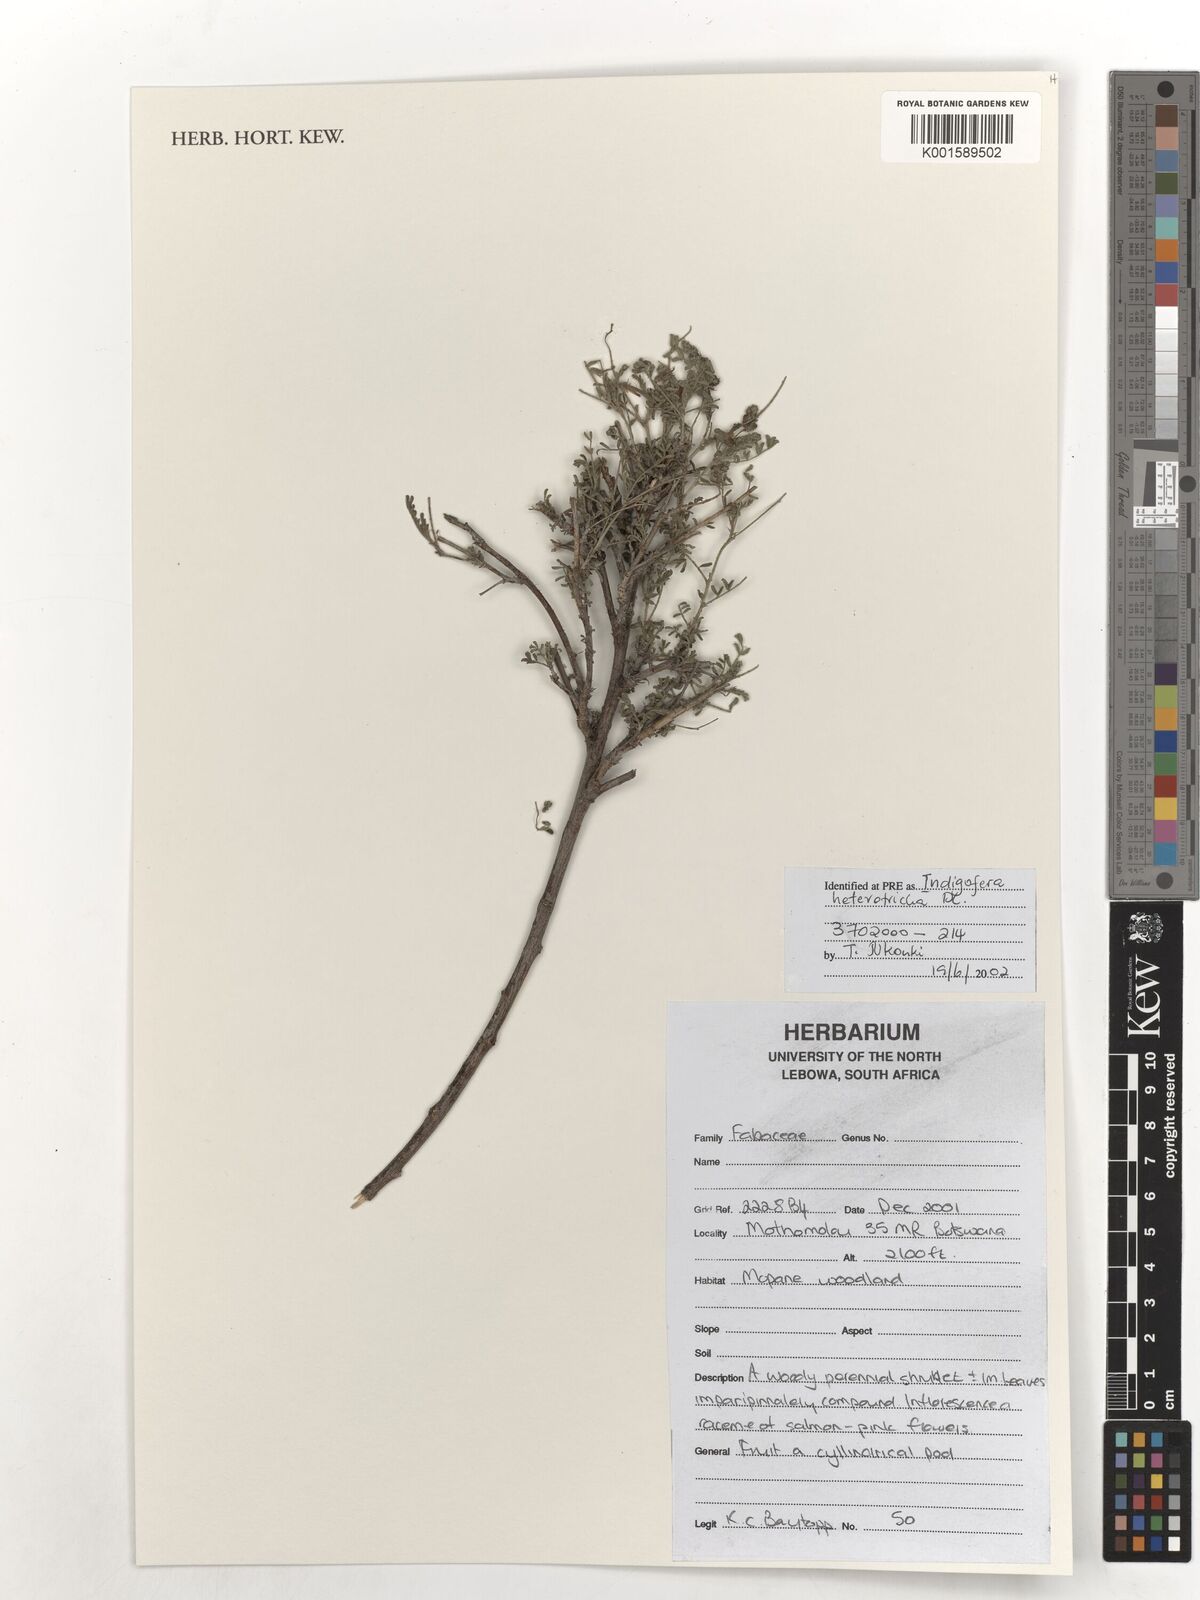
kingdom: Plantae
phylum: Tracheophyta
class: Magnoliopsida
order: Fabales
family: Fabaceae
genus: Indigofera
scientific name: Indigofera heterotricha
